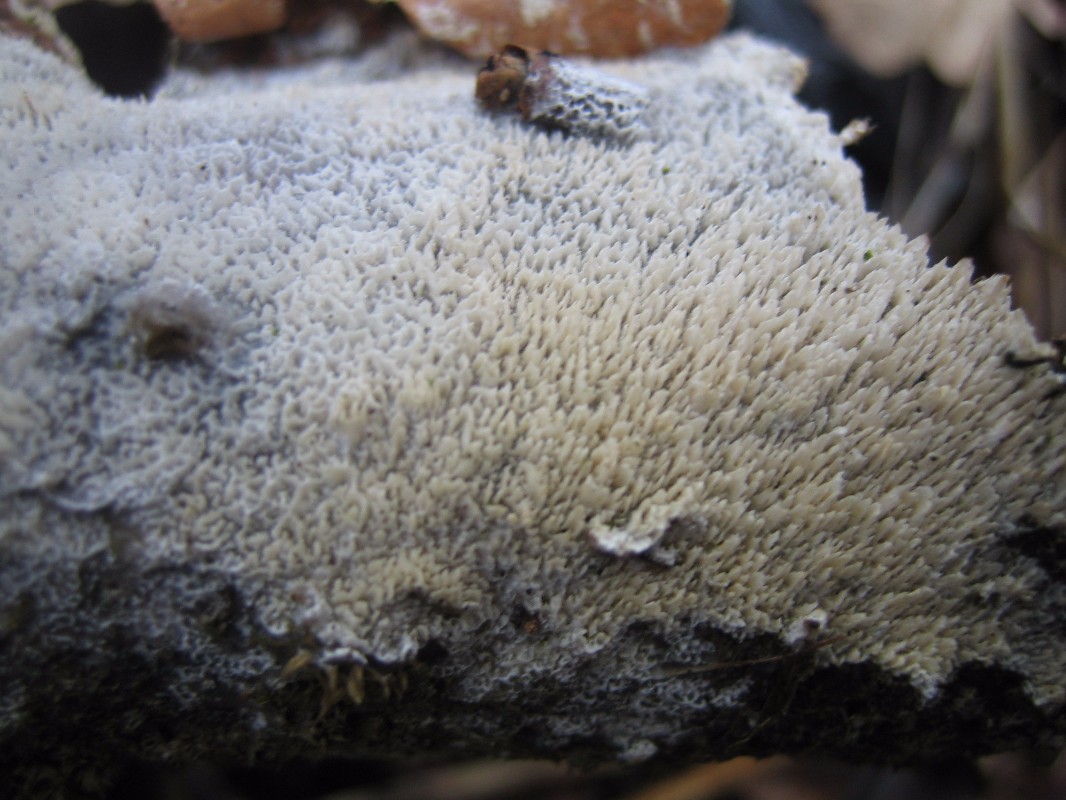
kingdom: Fungi
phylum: Basidiomycota
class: Agaricomycetes
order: Hymenochaetales
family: Schizoporaceae
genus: Schizopora
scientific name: Schizopora paradoxa
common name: hvid tandsvamp
